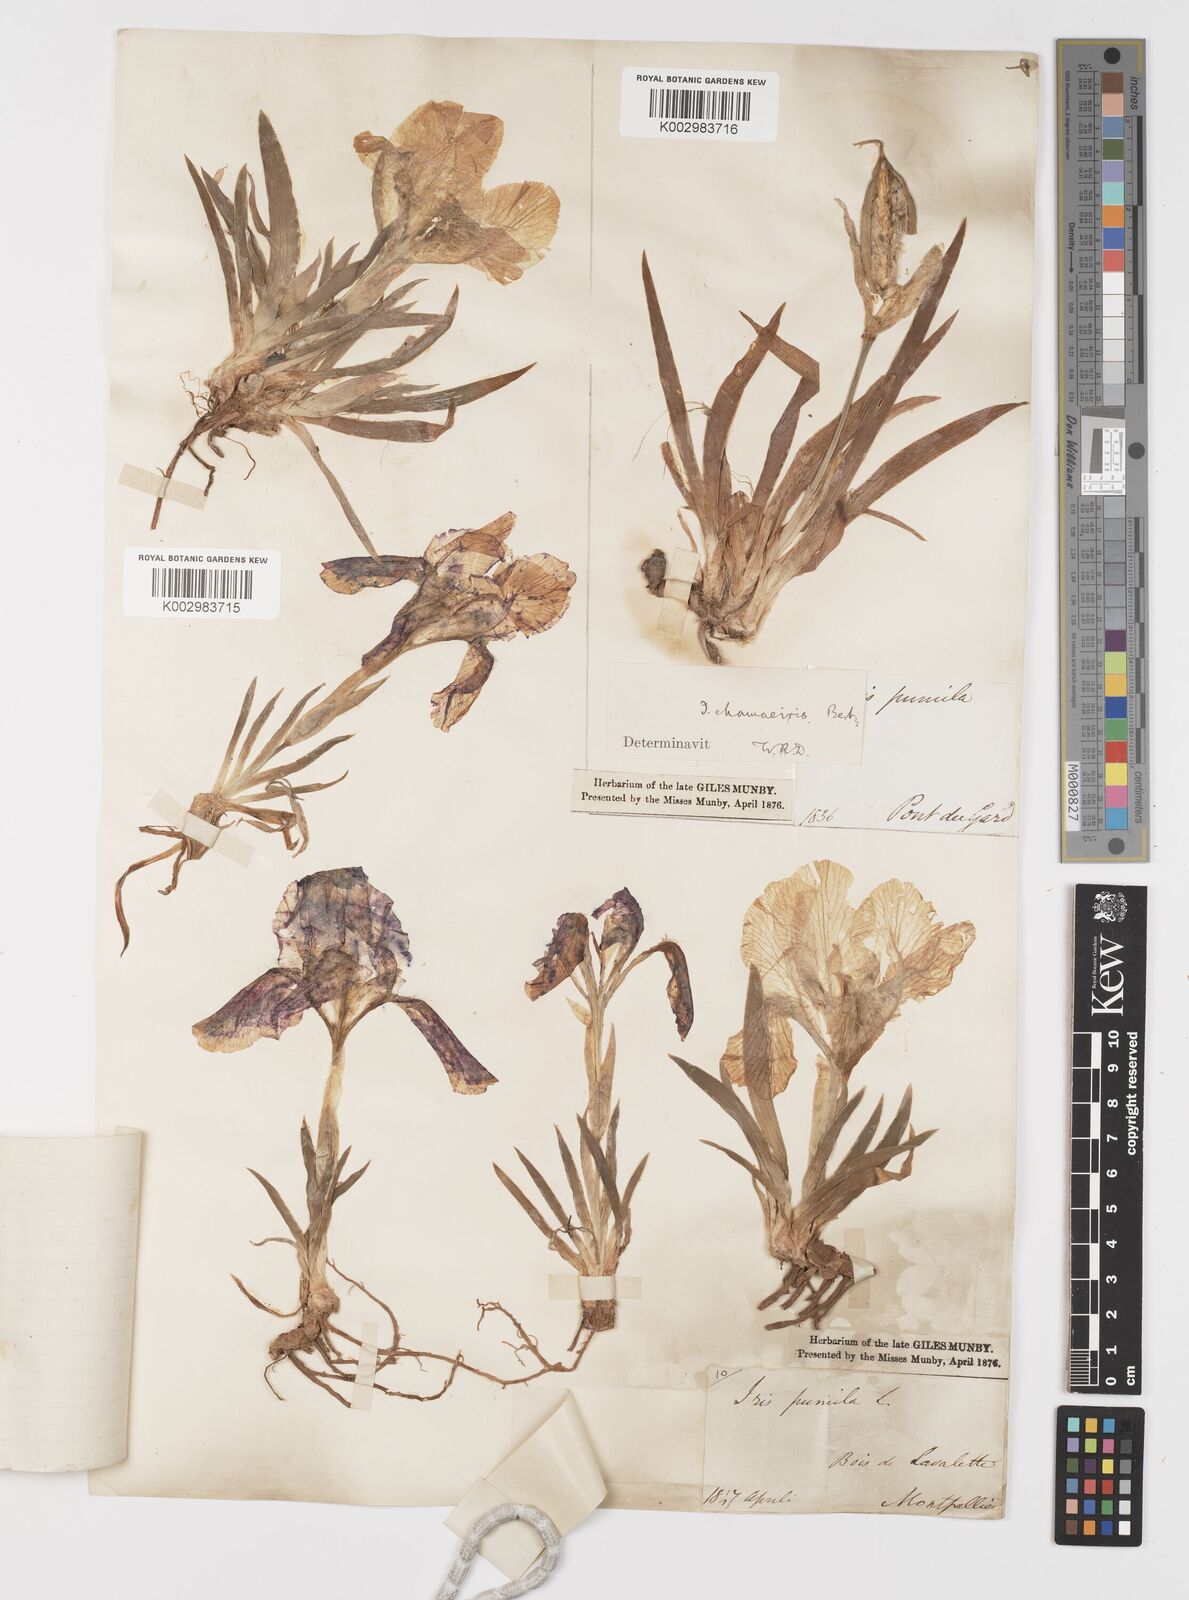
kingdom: Plantae
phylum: Tracheophyta
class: Liliopsida
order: Asparagales
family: Iridaceae
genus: Iris
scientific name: Iris lutescens
